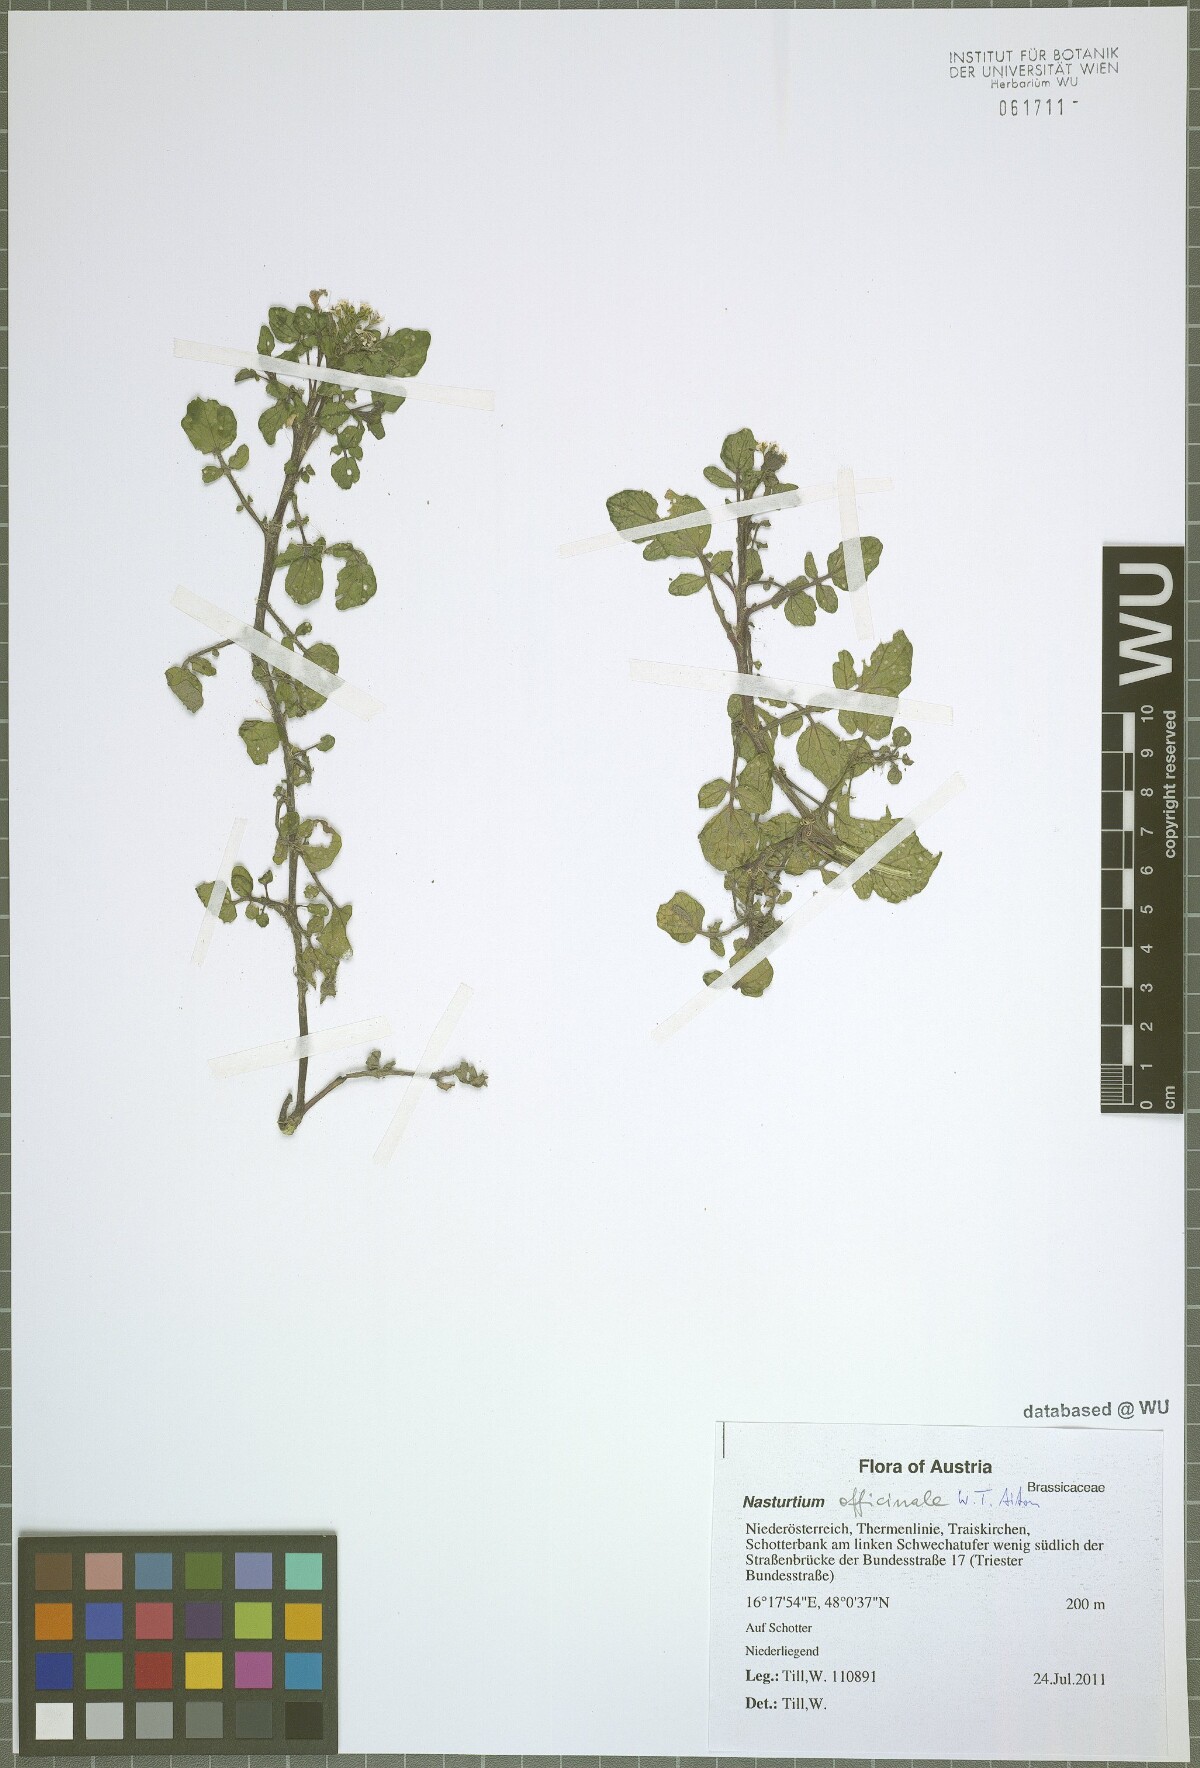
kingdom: Plantae
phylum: Tracheophyta
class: Magnoliopsida
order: Brassicales
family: Brassicaceae
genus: Nasturtium
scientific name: Nasturtium officinale
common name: Watercress
